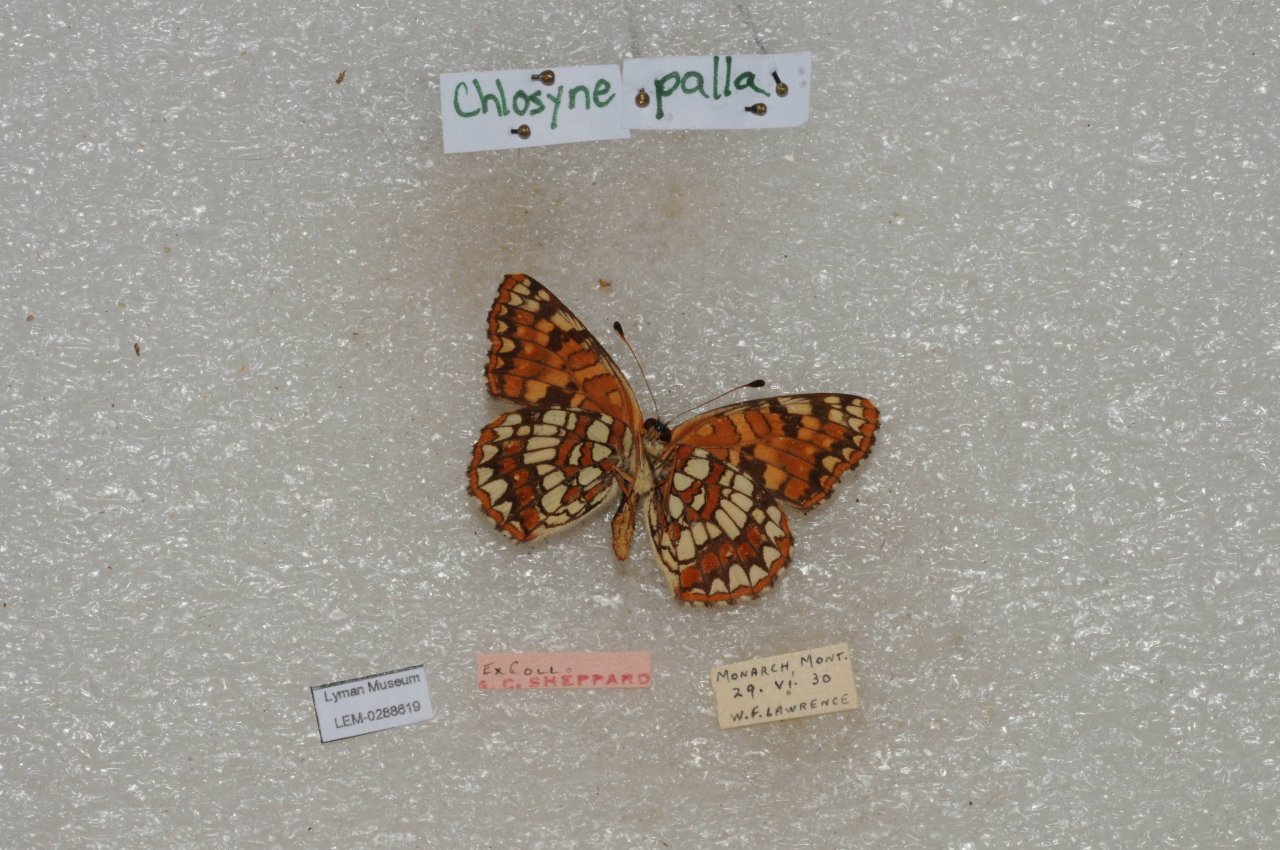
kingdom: Animalia
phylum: Arthropoda
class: Insecta
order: Lepidoptera
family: Nymphalidae
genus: Chlosyne
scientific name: Chlosyne palla
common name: Northern Checkerspot
